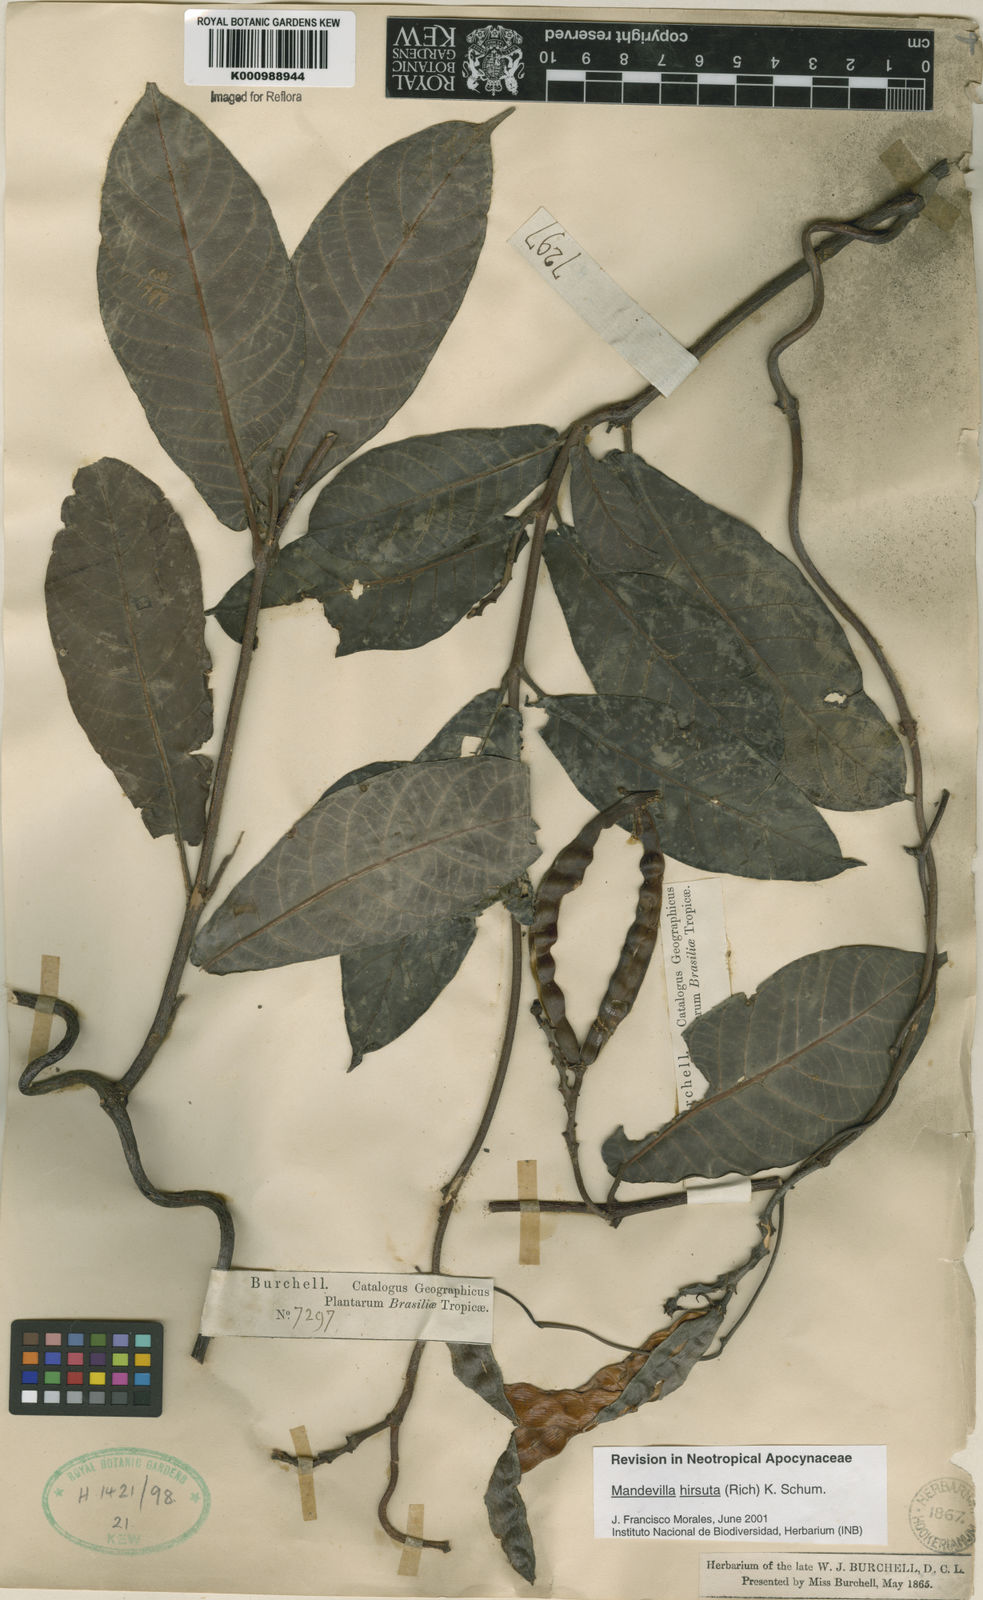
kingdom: Plantae
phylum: Tracheophyta
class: Magnoliopsida
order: Gentianales
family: Apocynaceae
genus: Mandevilla
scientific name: Mandevilla hirsuta
